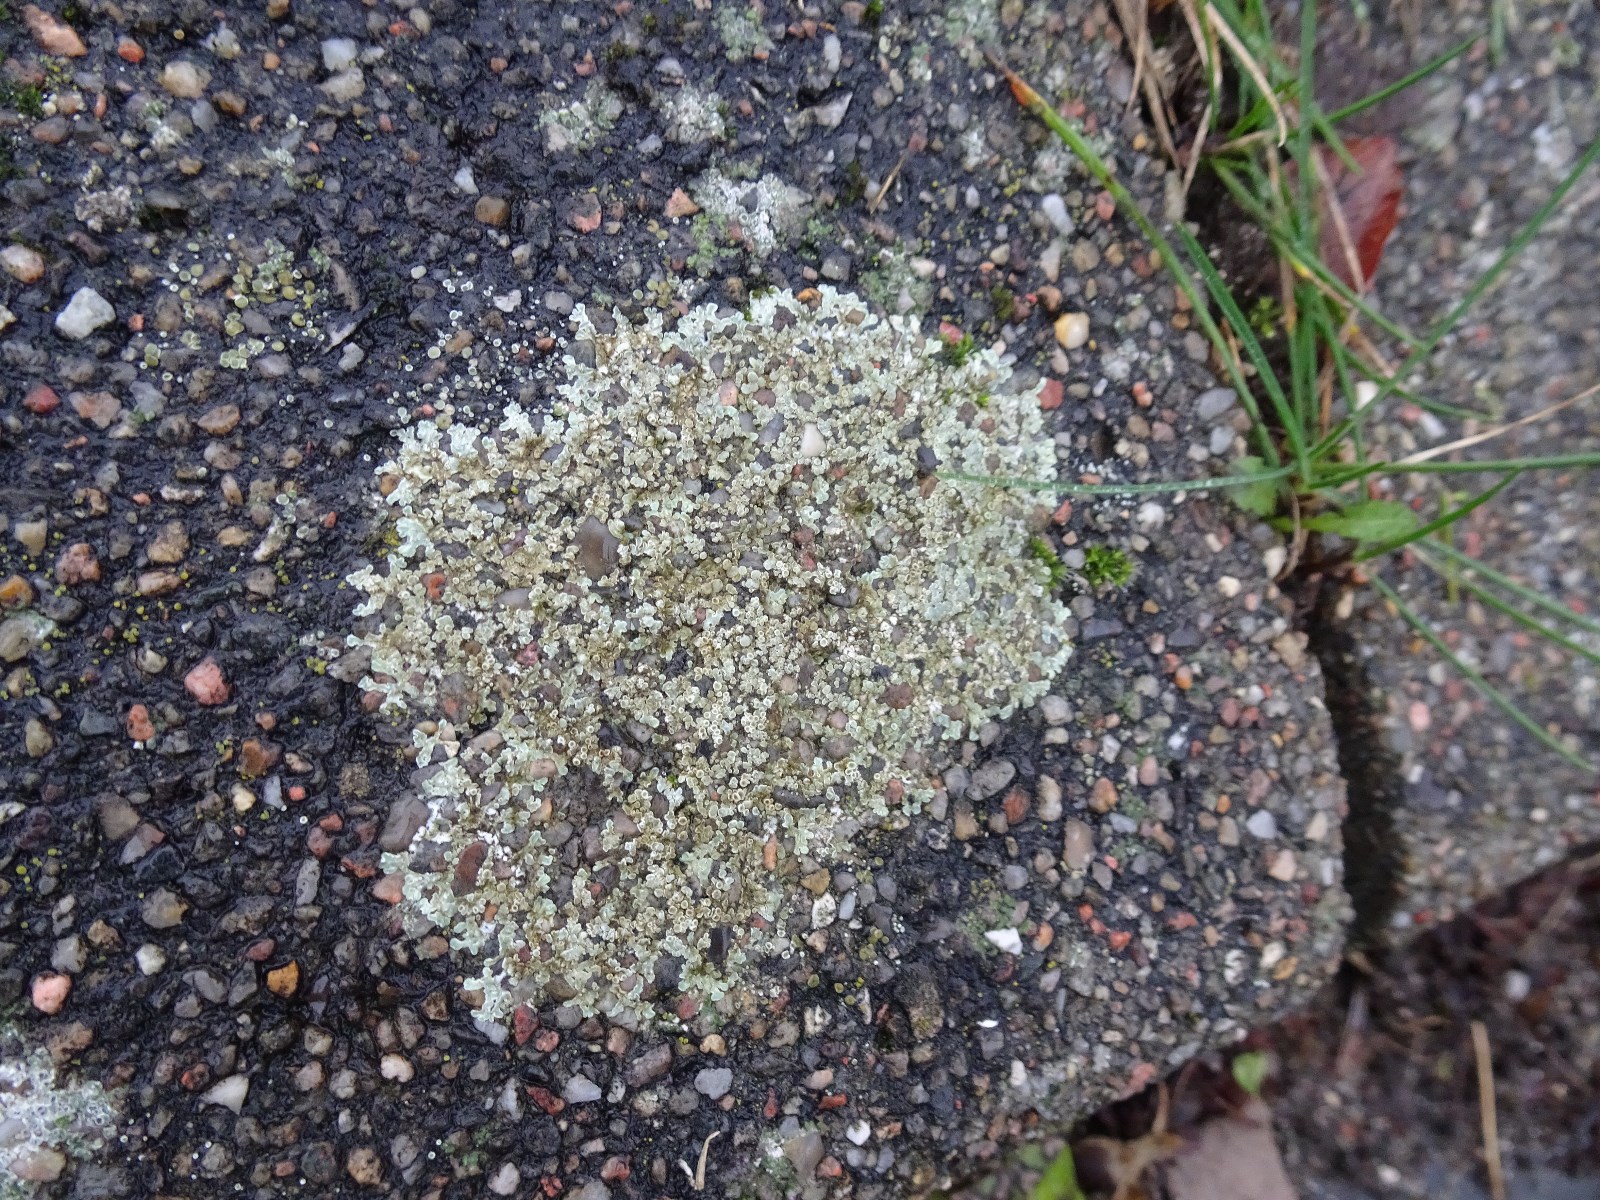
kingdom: Fungi
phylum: Ascomycota
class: Lecanoromycetes
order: Lecanorales
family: Lecanoraceae
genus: Protoparmeliopsis
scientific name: Protoparmeliopsis muralis
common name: randfliget kantskivelav
